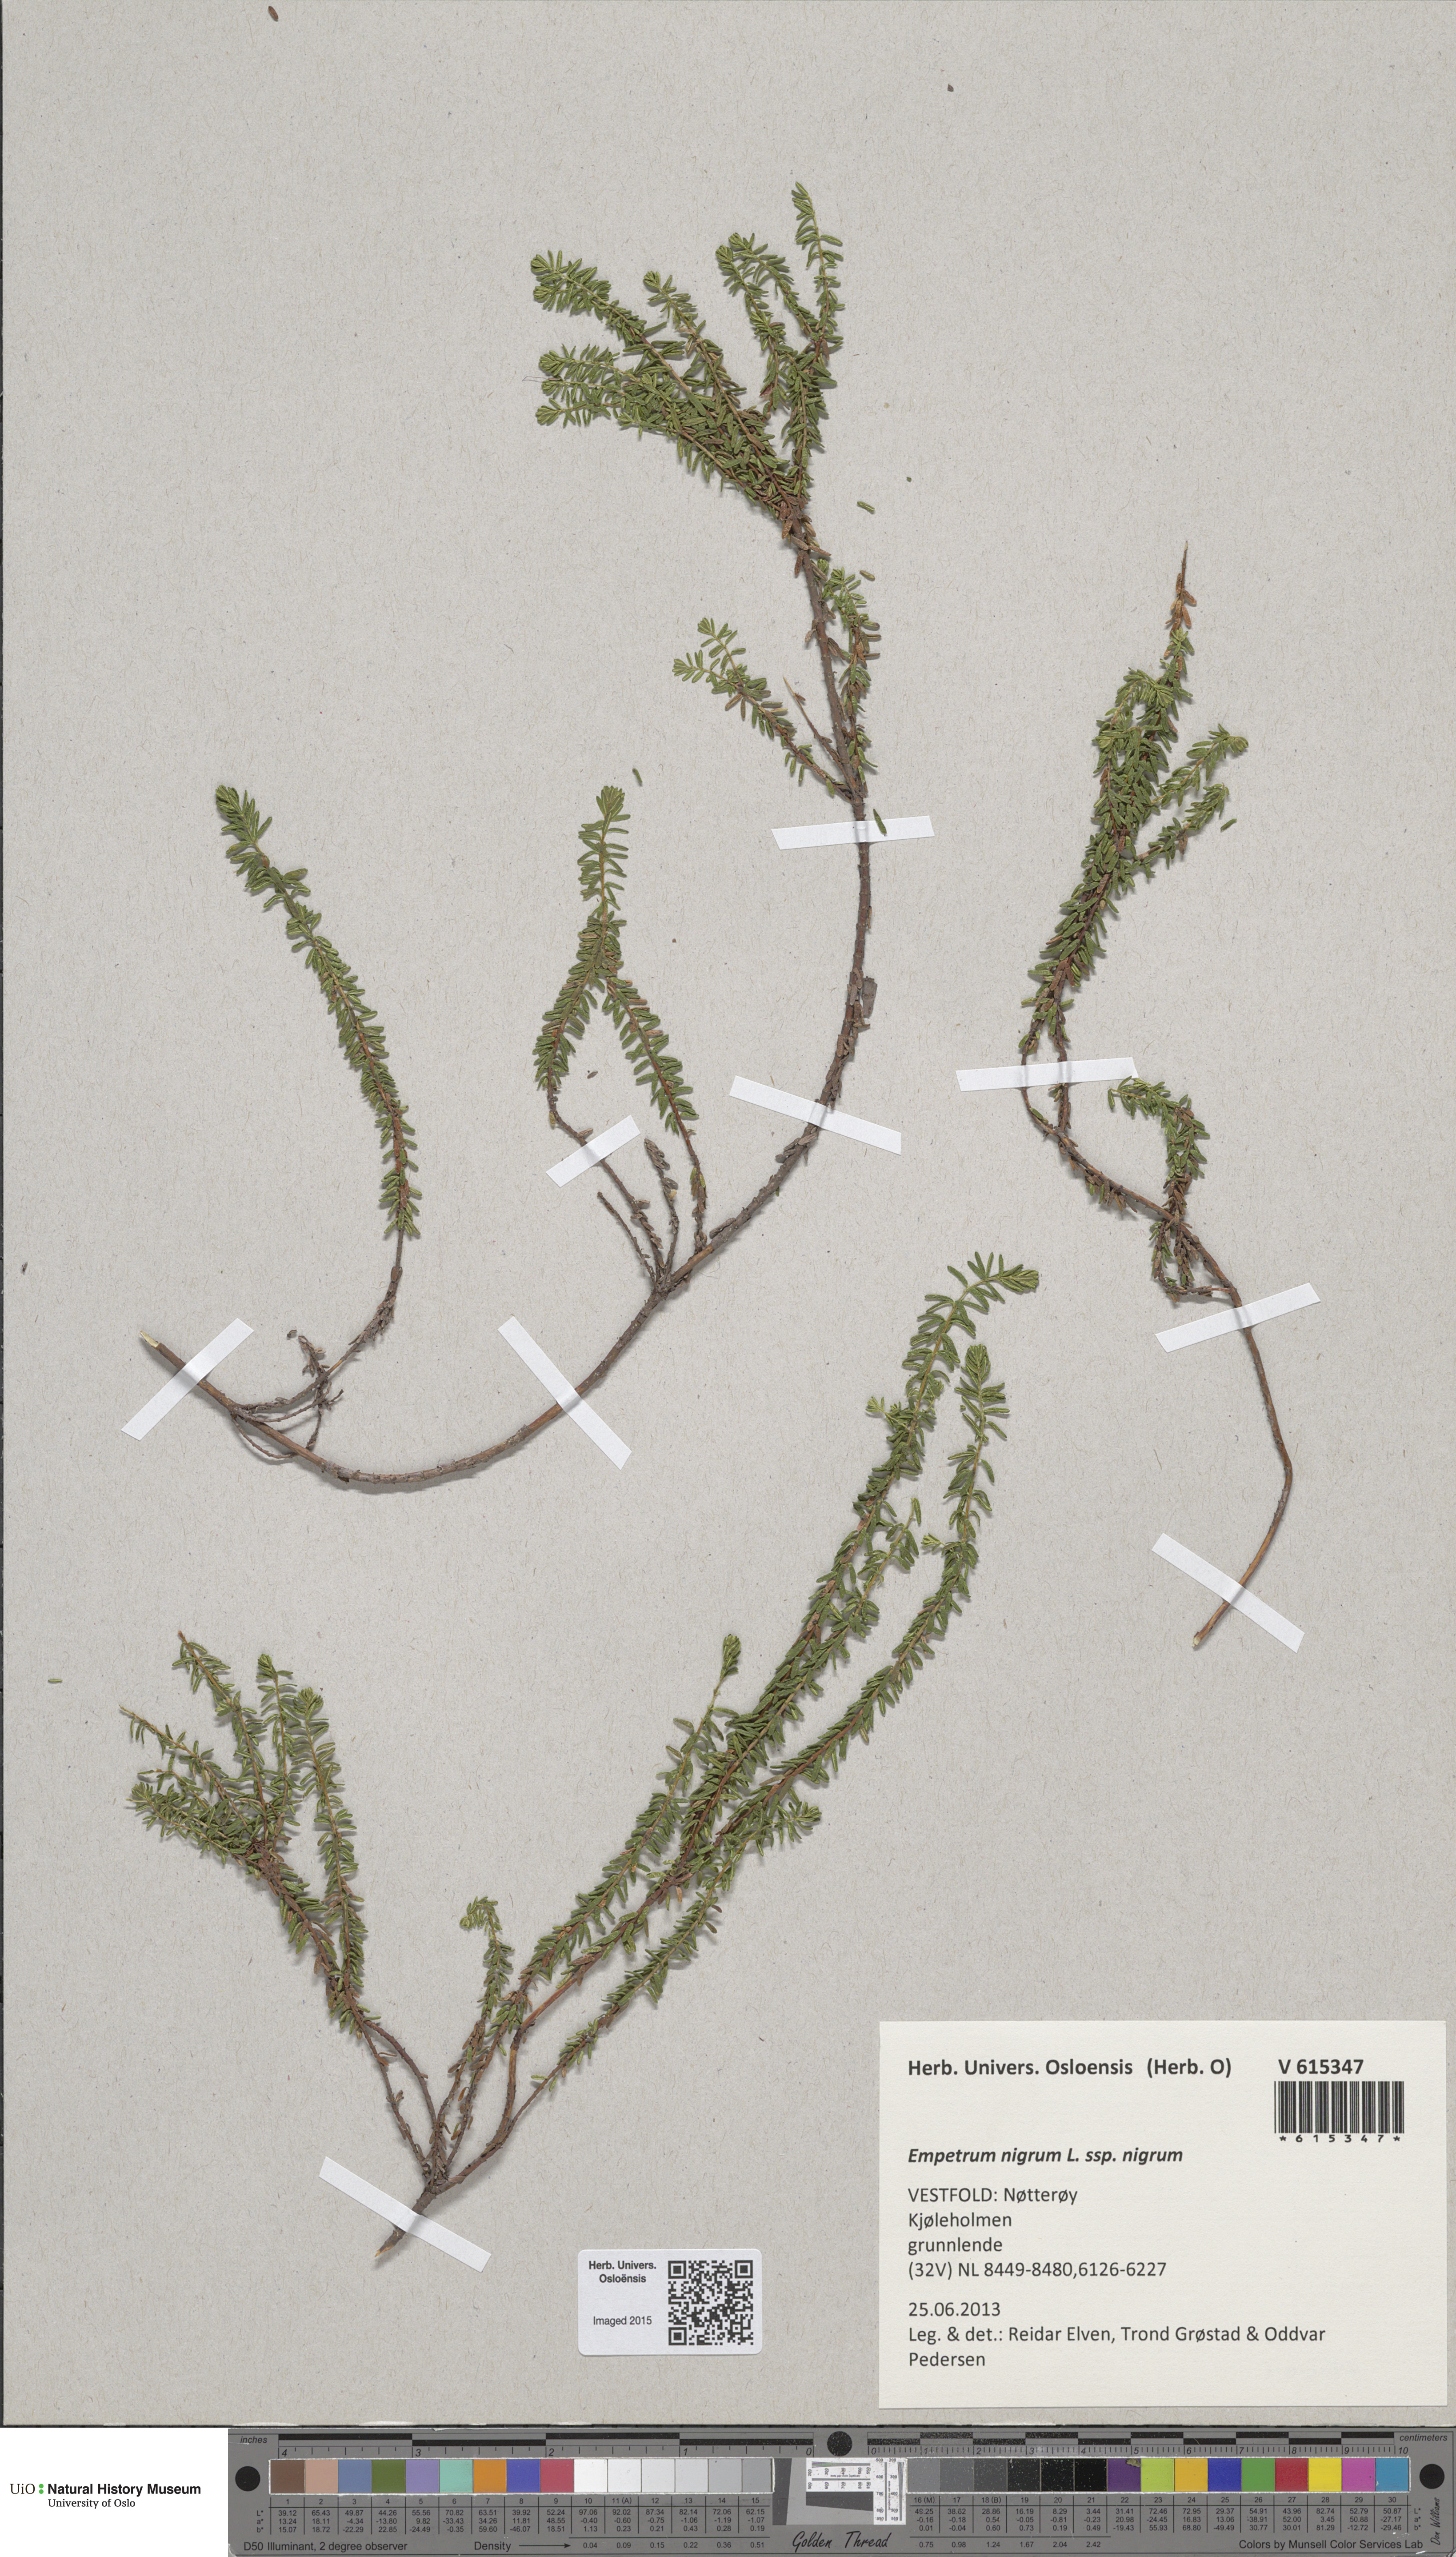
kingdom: Plantae
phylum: Tracheophyta
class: Magnoliopsida
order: Ericales
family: Ericaceae
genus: Empetrum
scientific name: Empetrum nigrum
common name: Black crowberry
